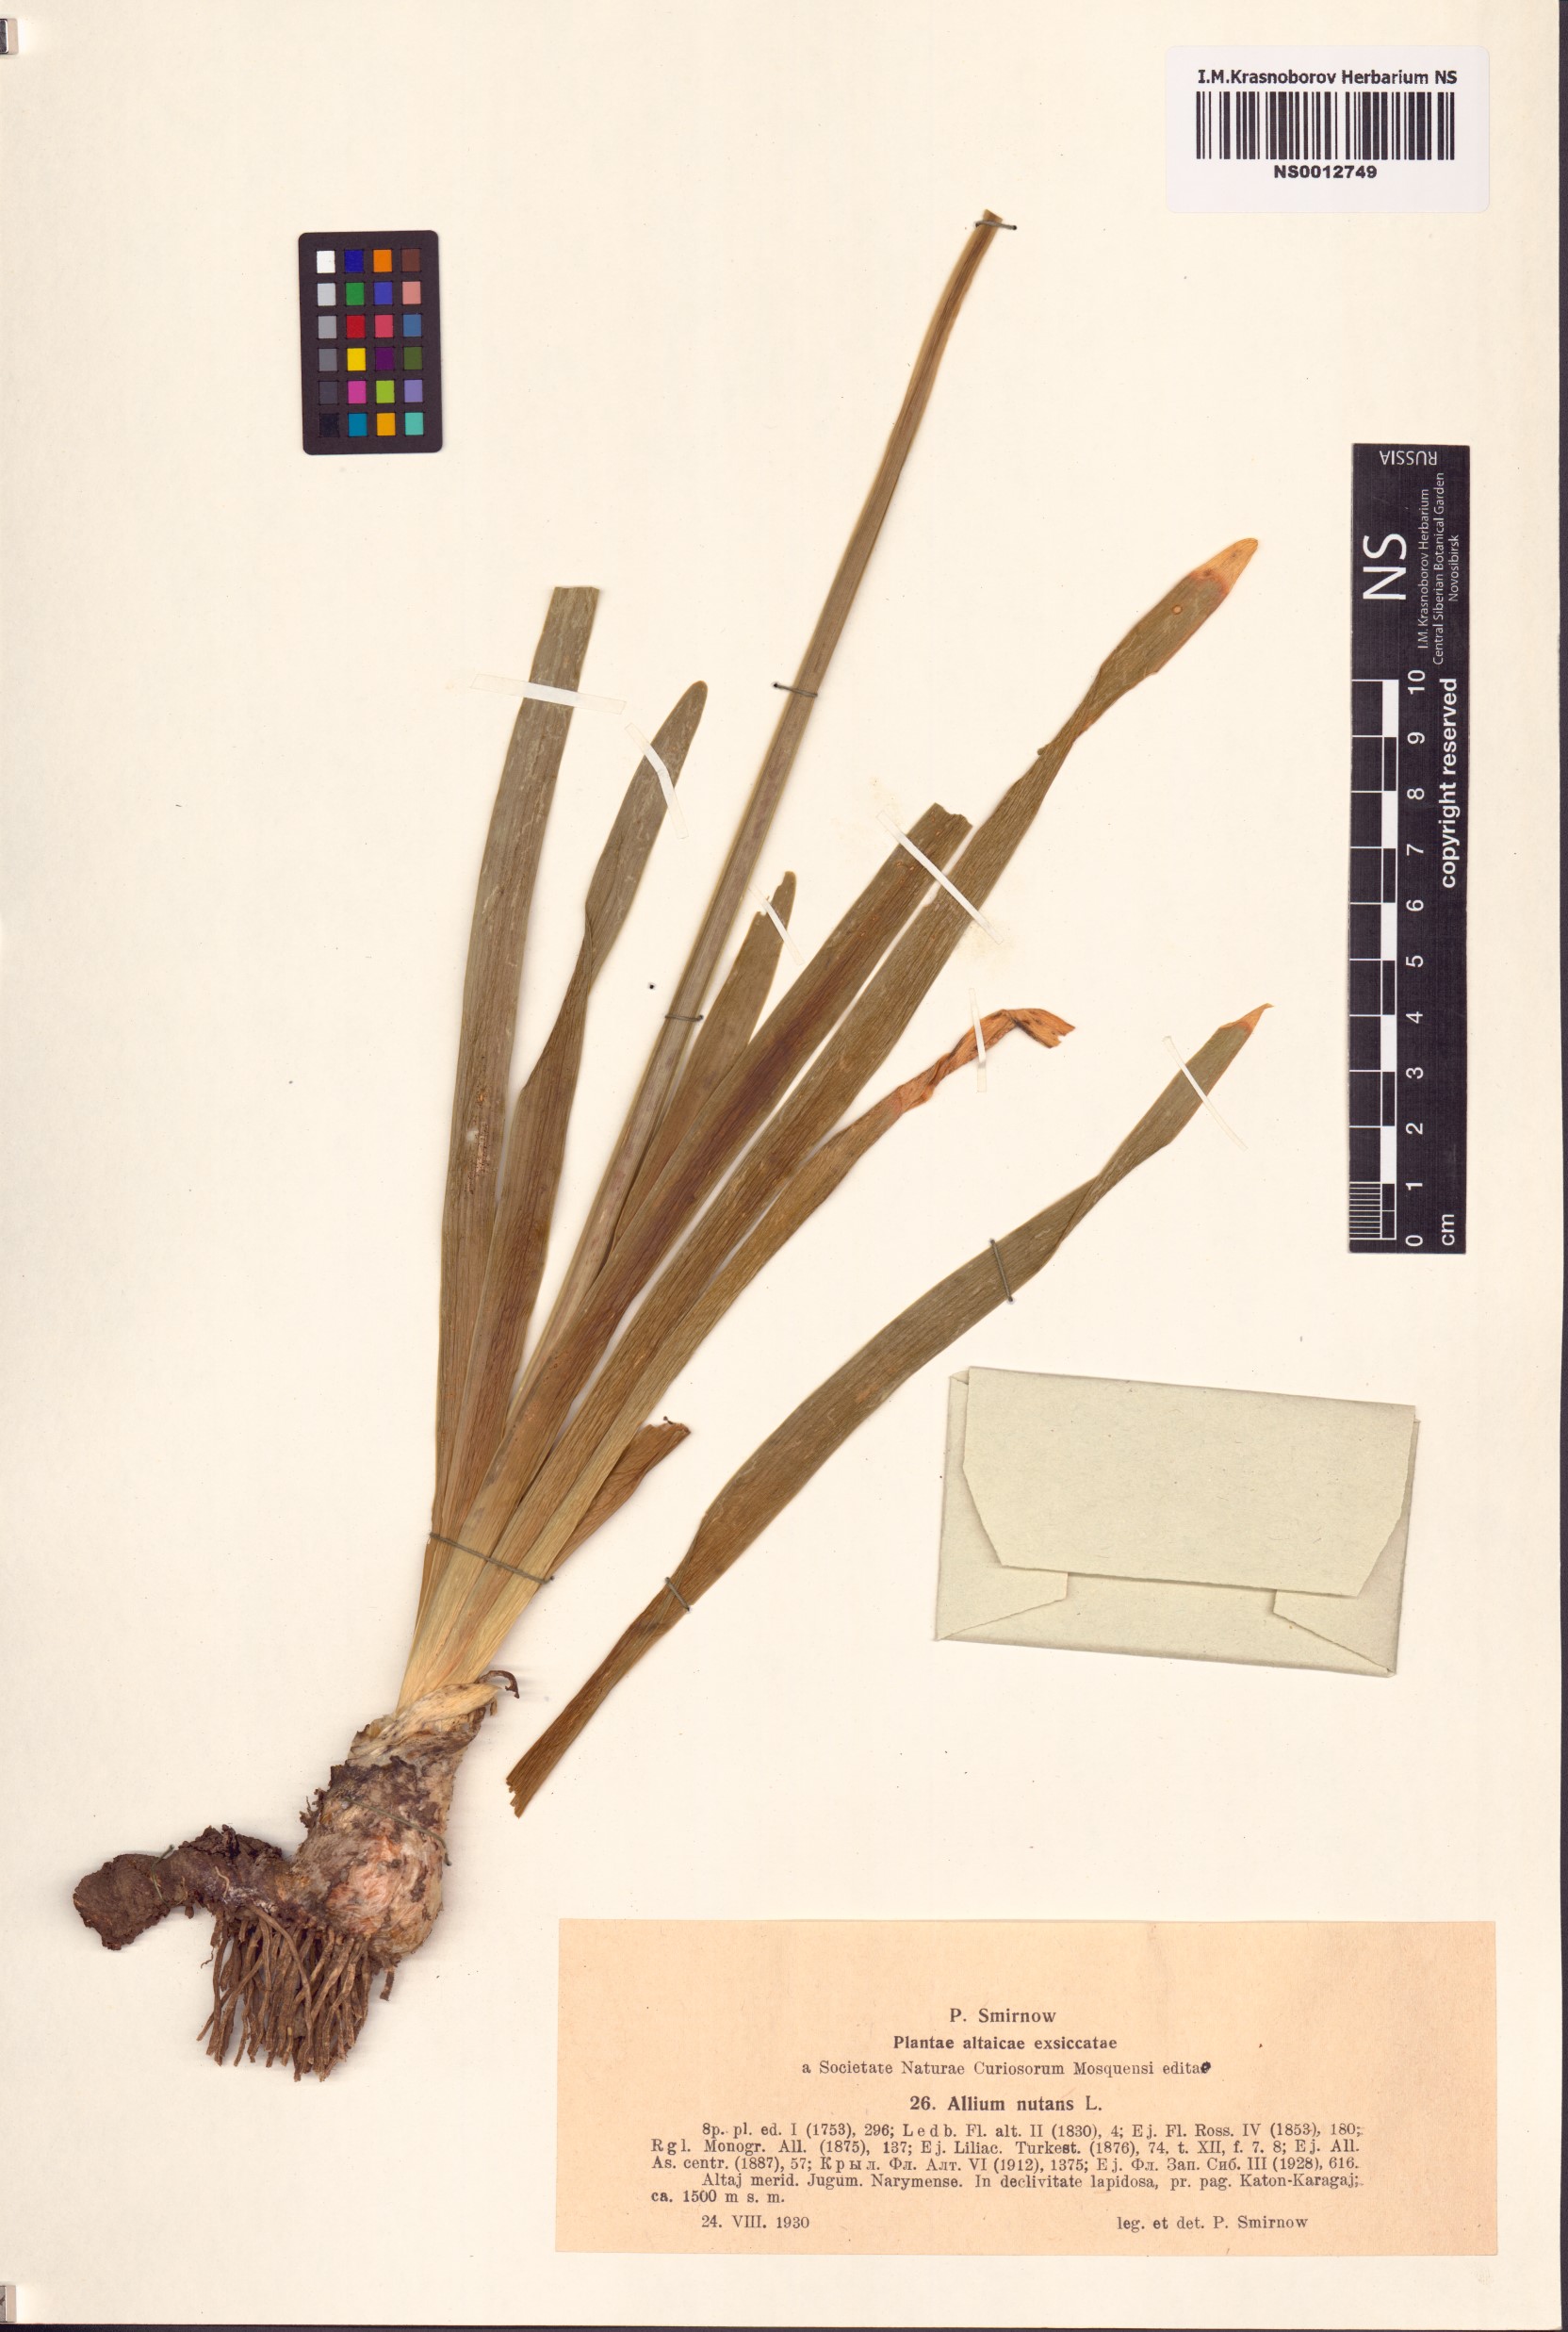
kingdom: Plantae
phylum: Tracheophyta
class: Liliopsida
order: Asparagales
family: Amaryllidaceae
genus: Allium
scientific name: Allium nutans
